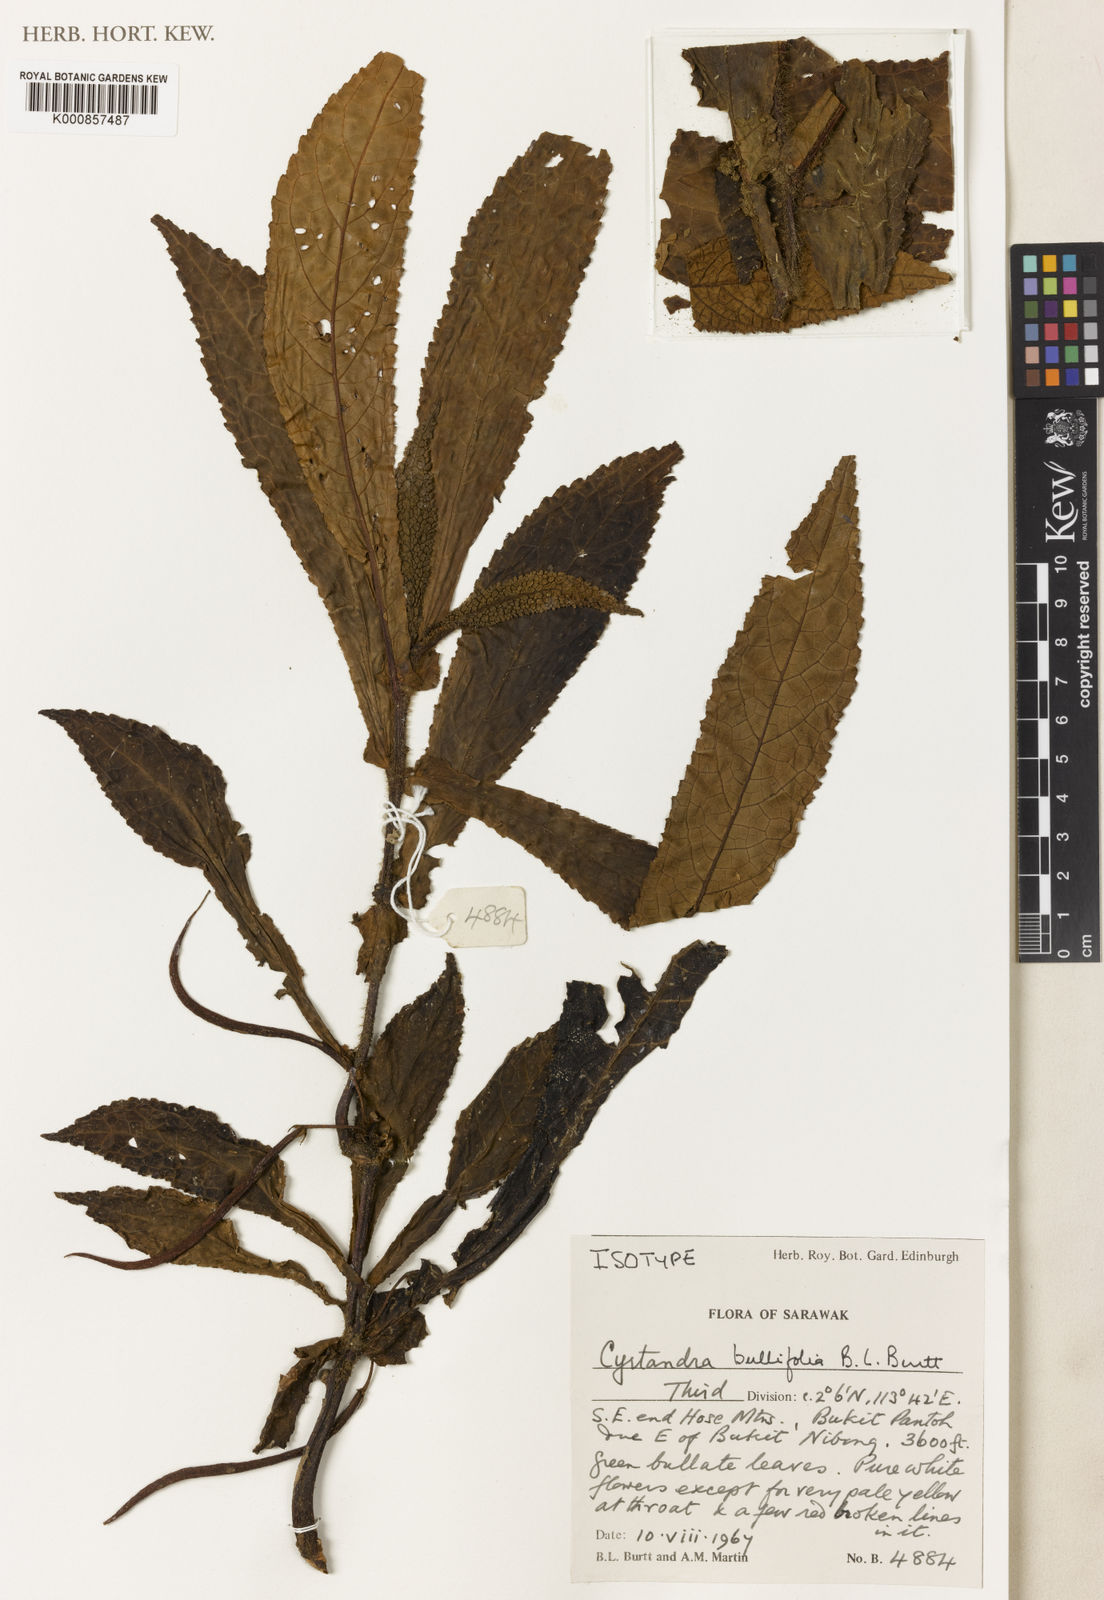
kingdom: Plantae
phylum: Tracheophyta
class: Magnoliopsida
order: Lamiales
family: Gesneriaceae
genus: Cyrtandra
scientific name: Cyrtandra bullifolia
